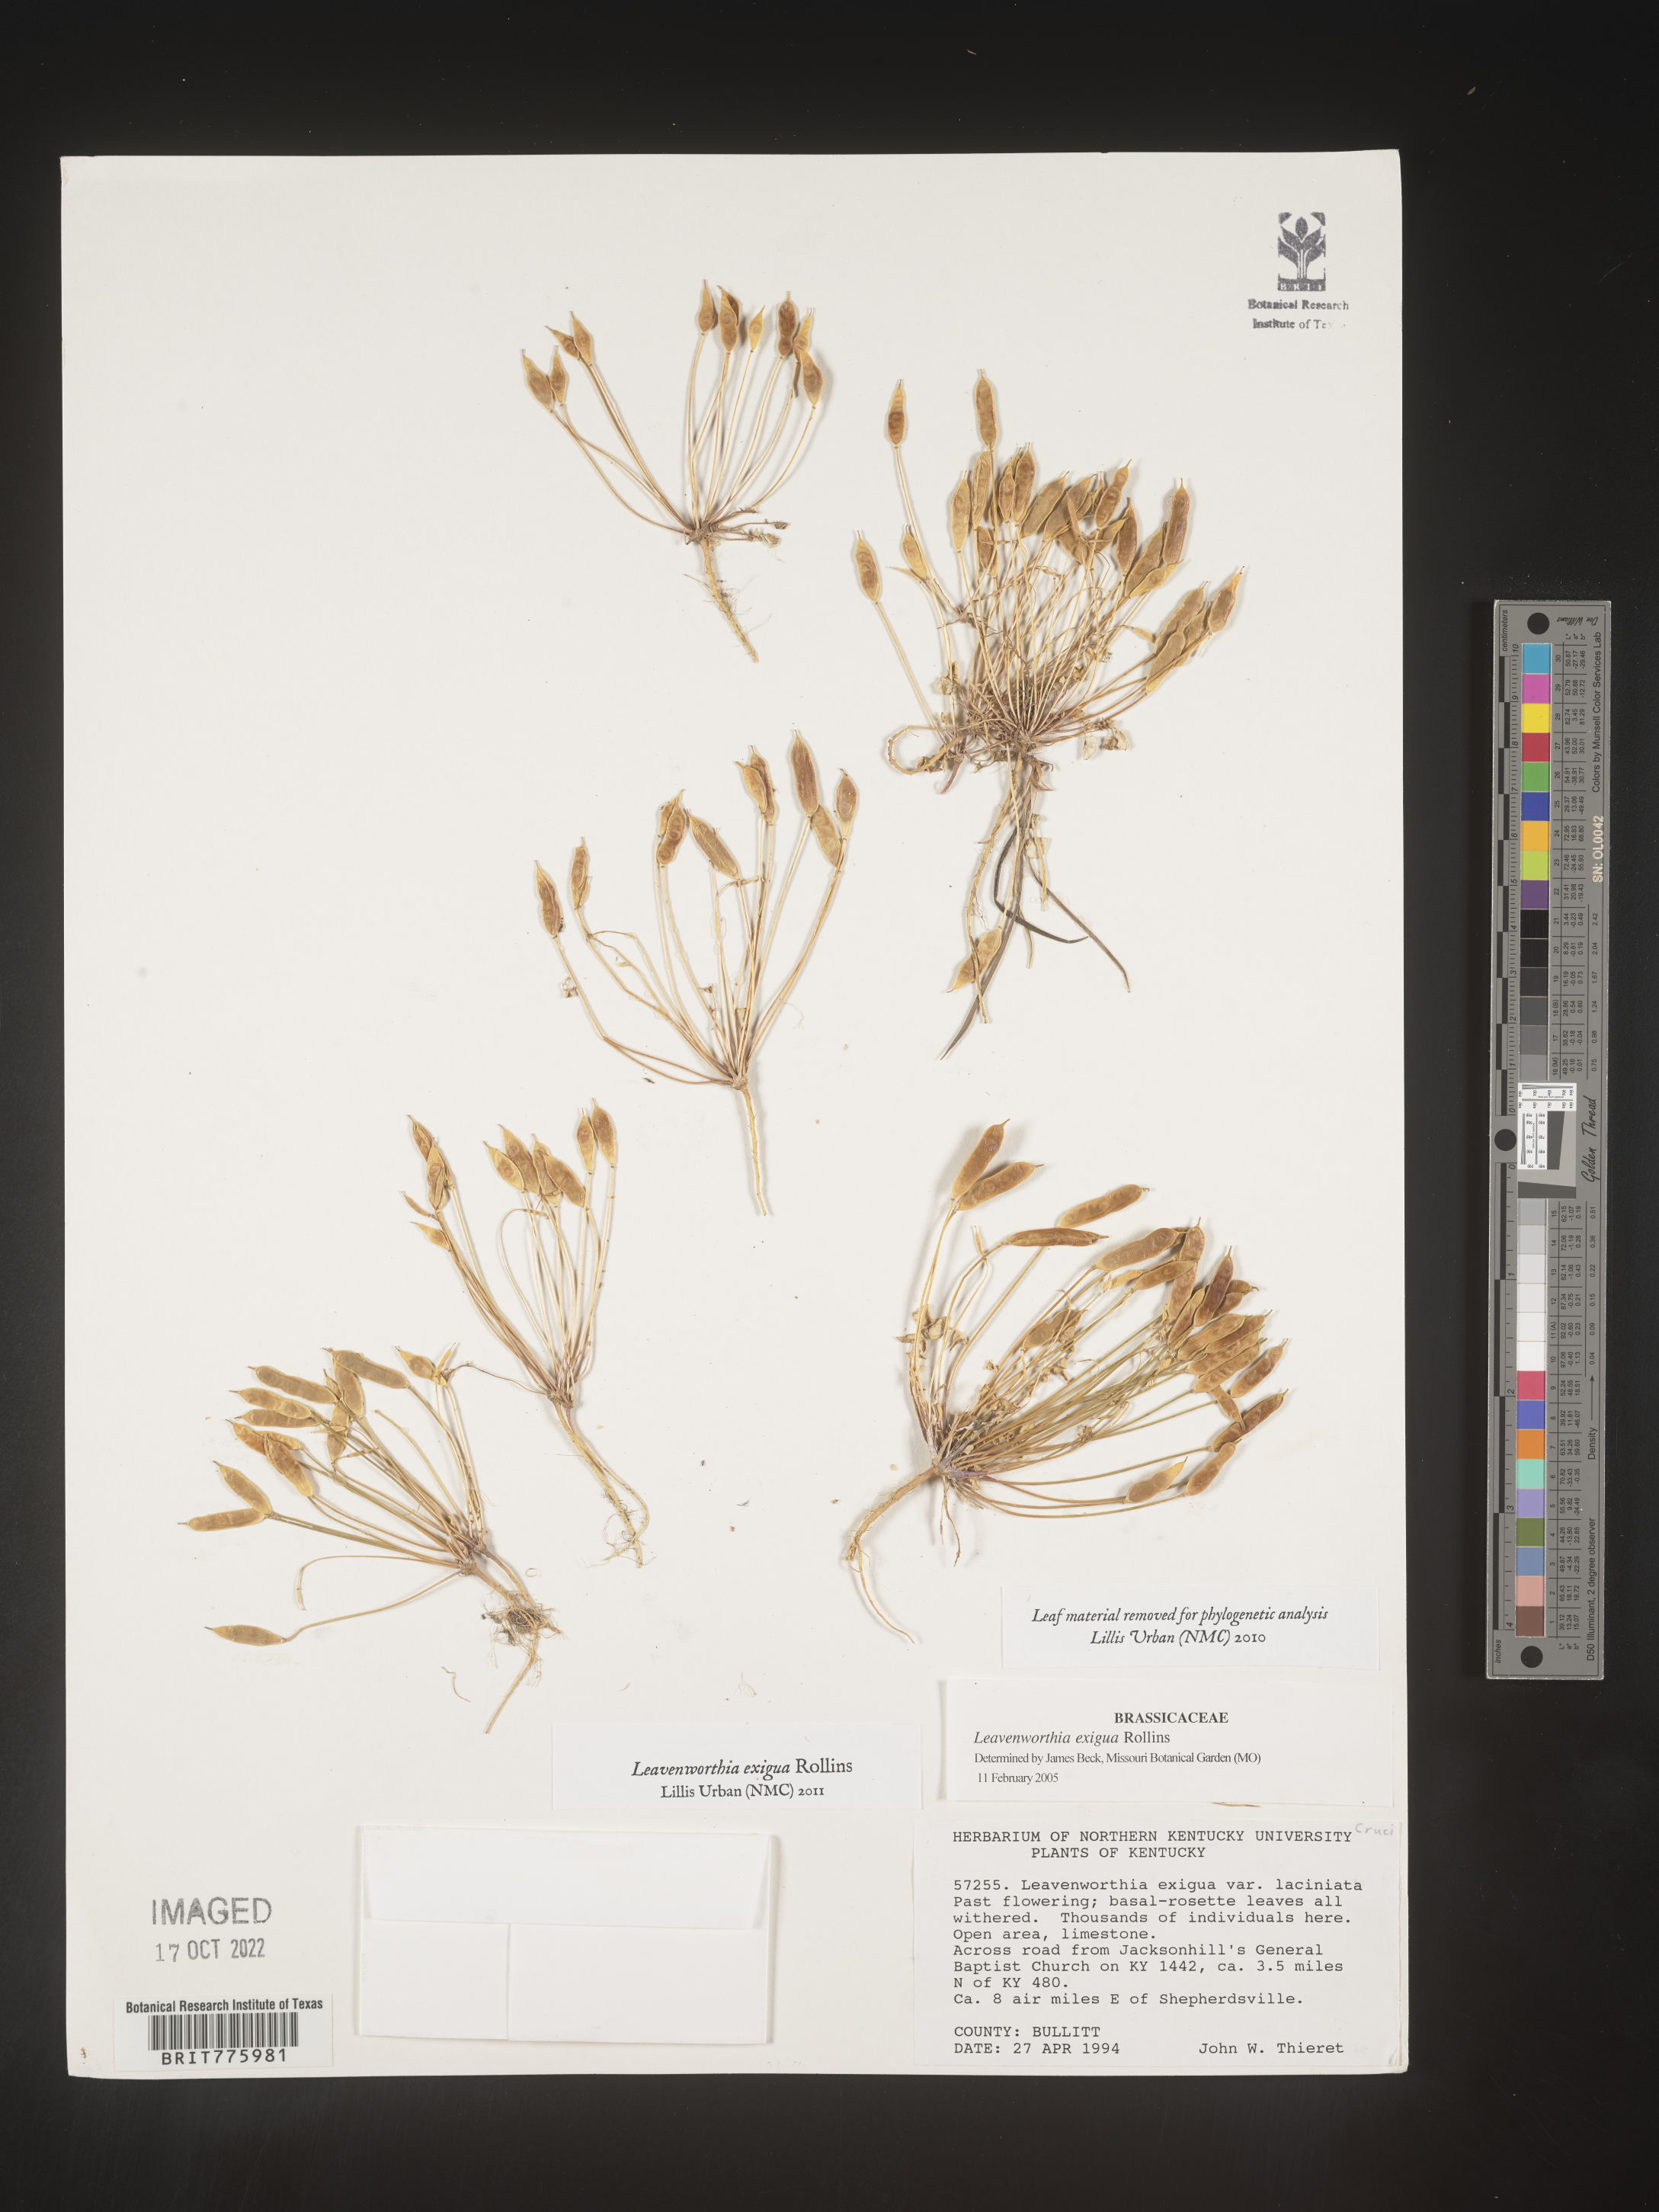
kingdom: Plantae
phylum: Tracheophyta
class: Magnoliopsida
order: Brassicales
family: Brassicaceae
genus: Leavenworthia
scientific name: Leavenworthia
